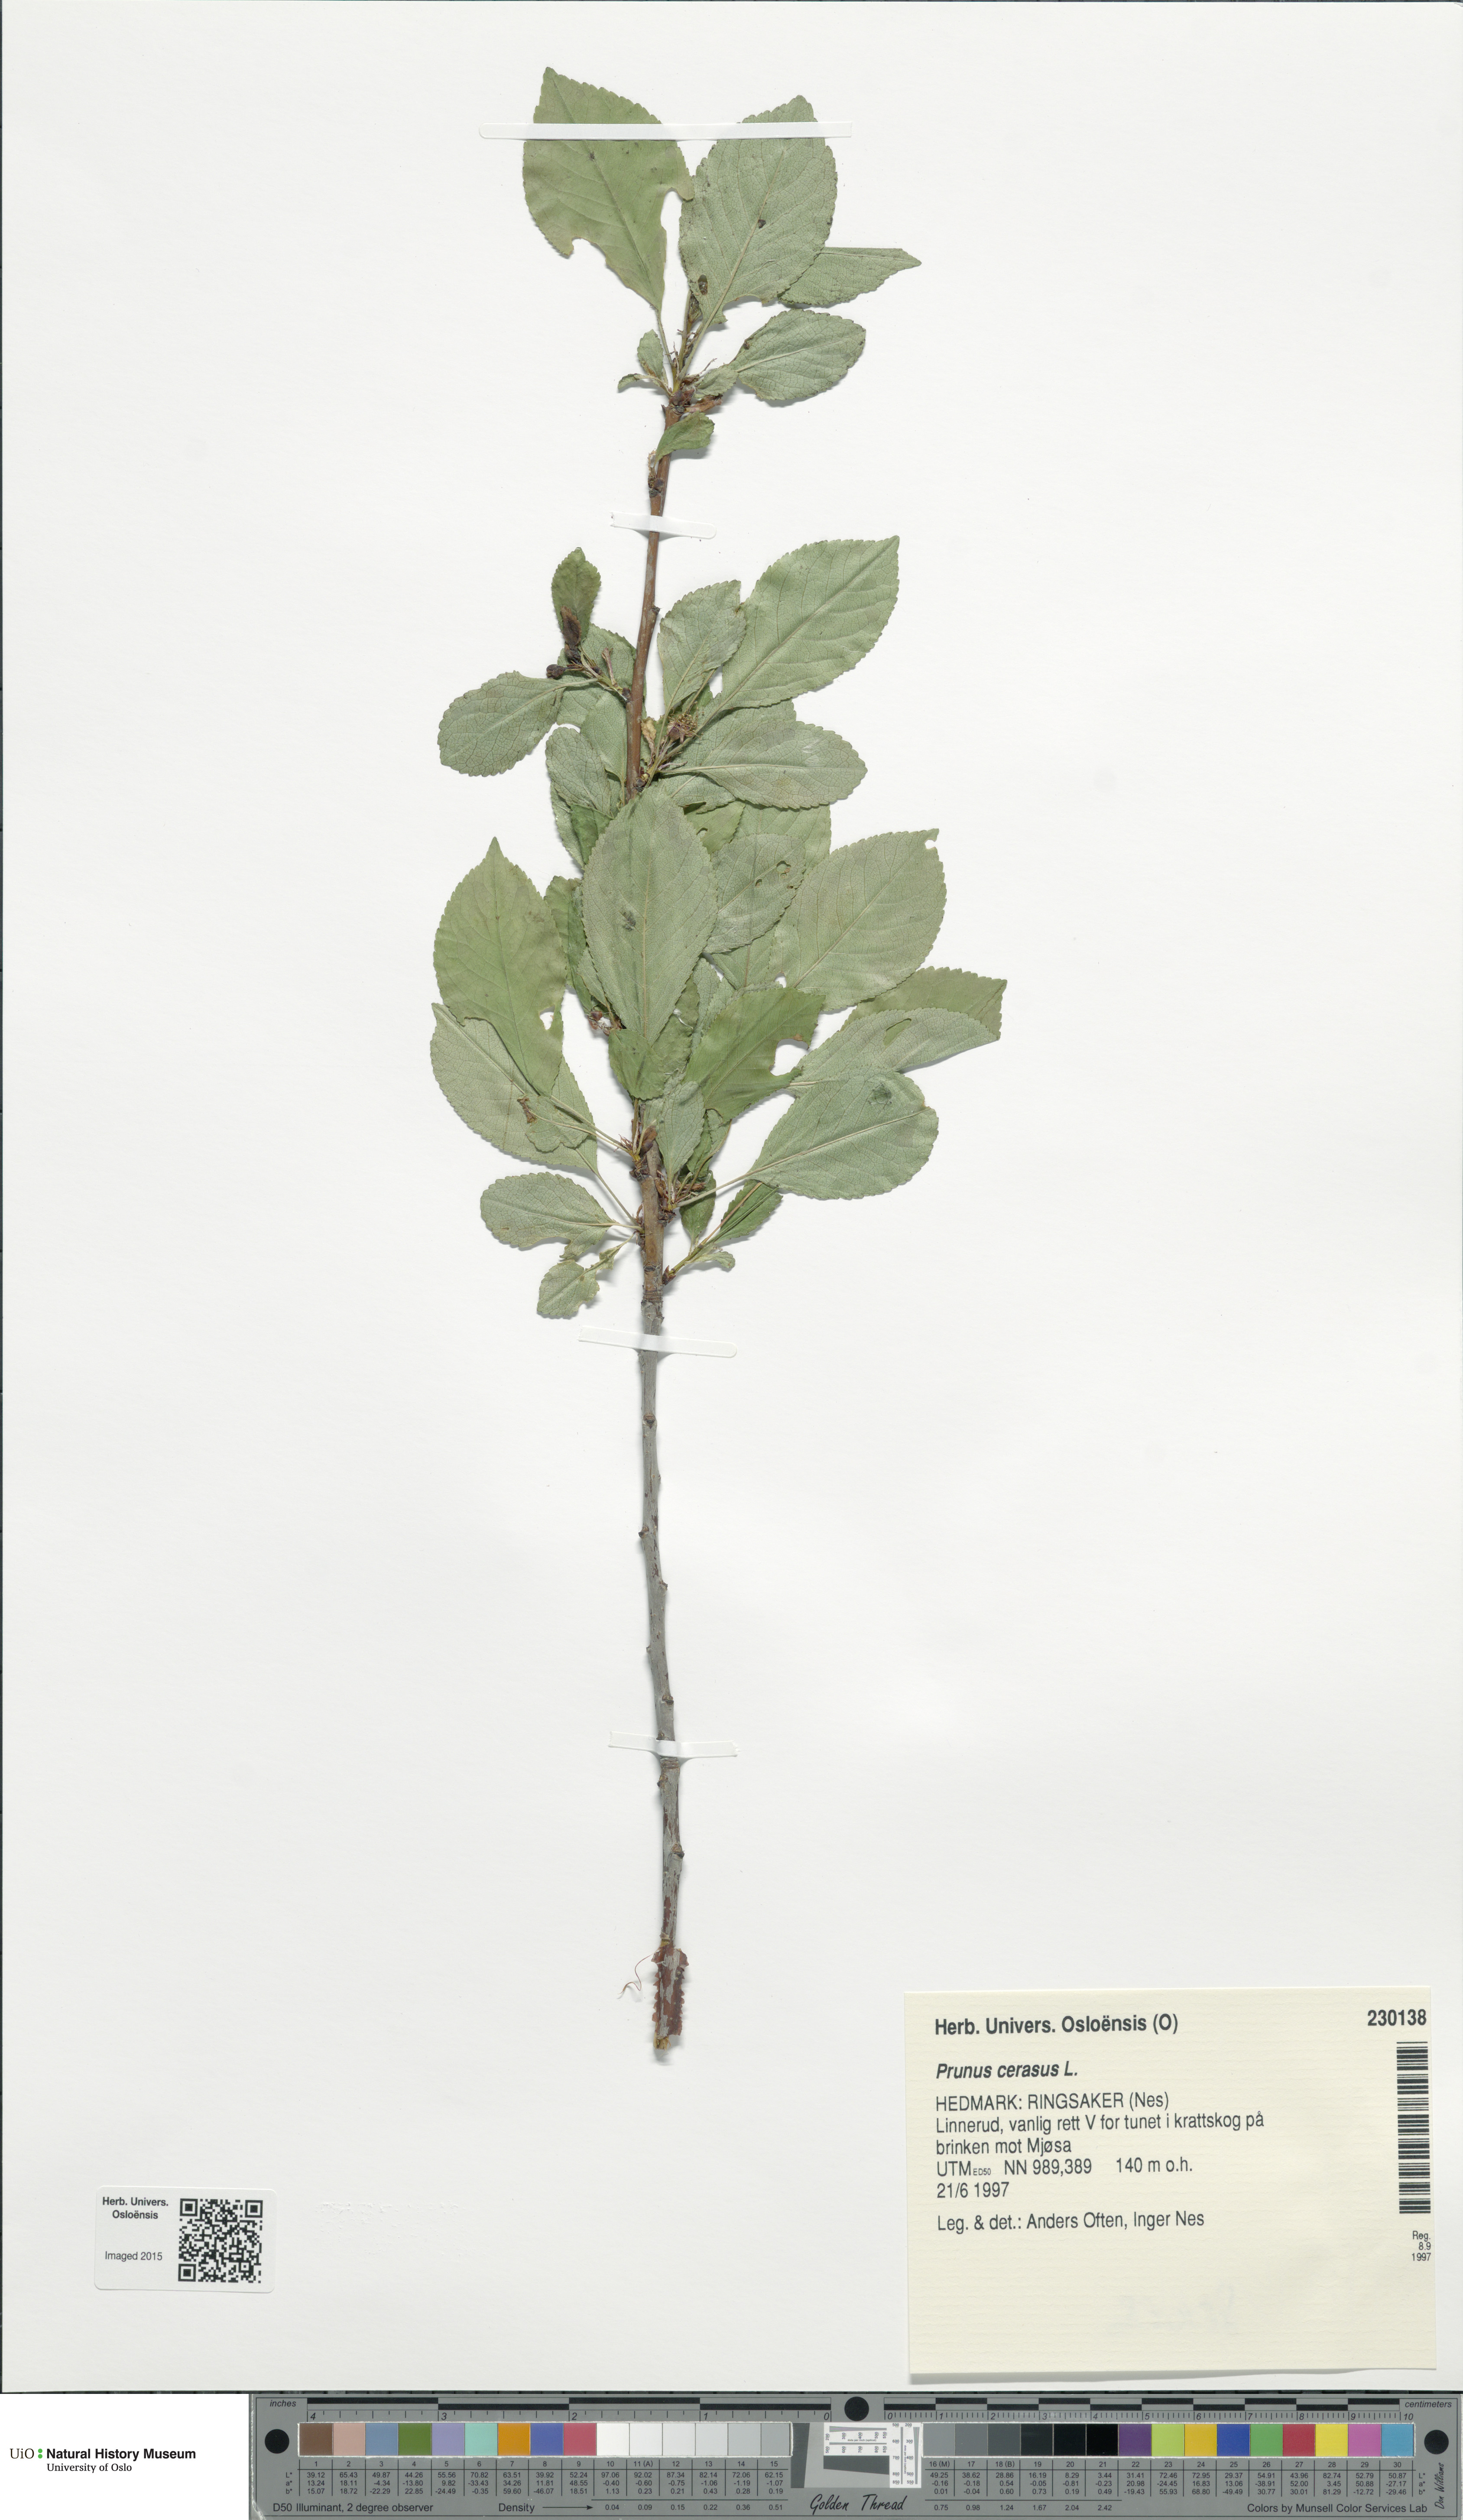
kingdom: Plantae
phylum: Tracheophyta
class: Magnoliopsida
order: Rosales
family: Rosaceae
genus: Prunus
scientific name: Prunus cerasus
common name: Morello cherry
